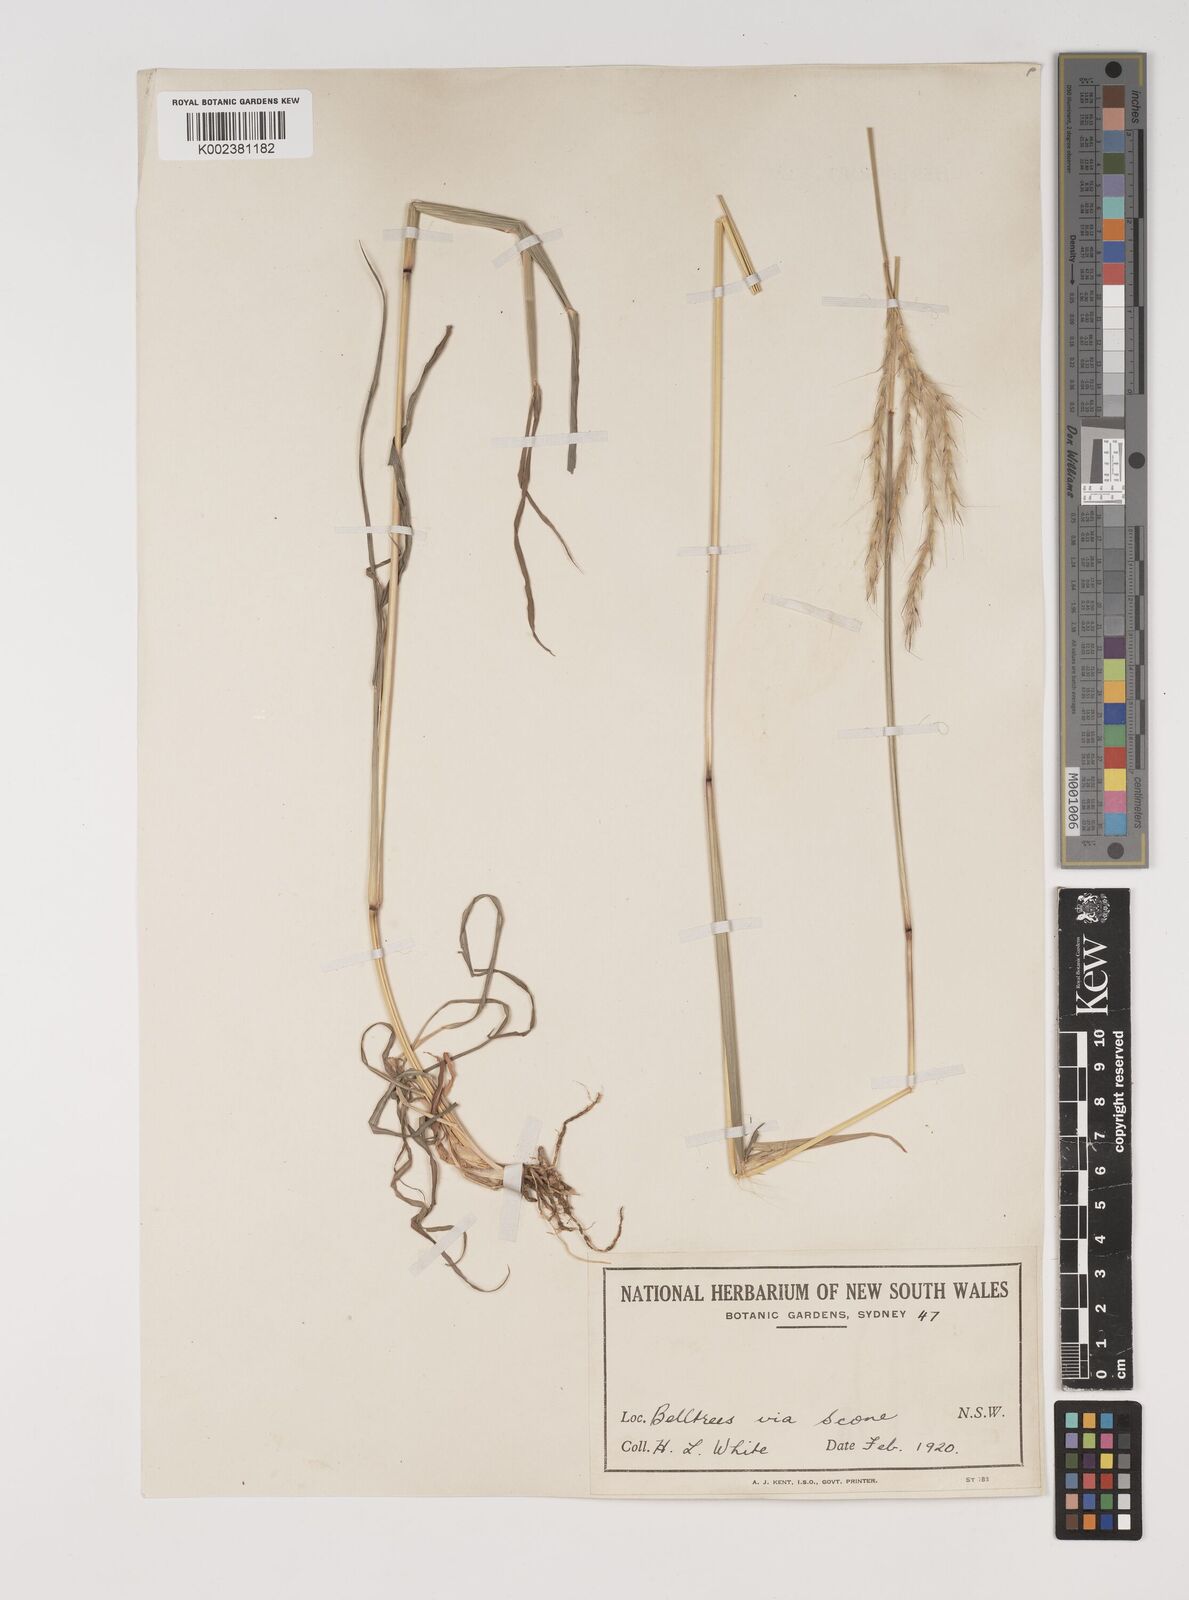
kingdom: Plantae
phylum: Tracheophyta
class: Liliopsida
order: Poales
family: Poaceae
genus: Bothriochloa
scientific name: Bothriochloa macra
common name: Pitted beard grass
